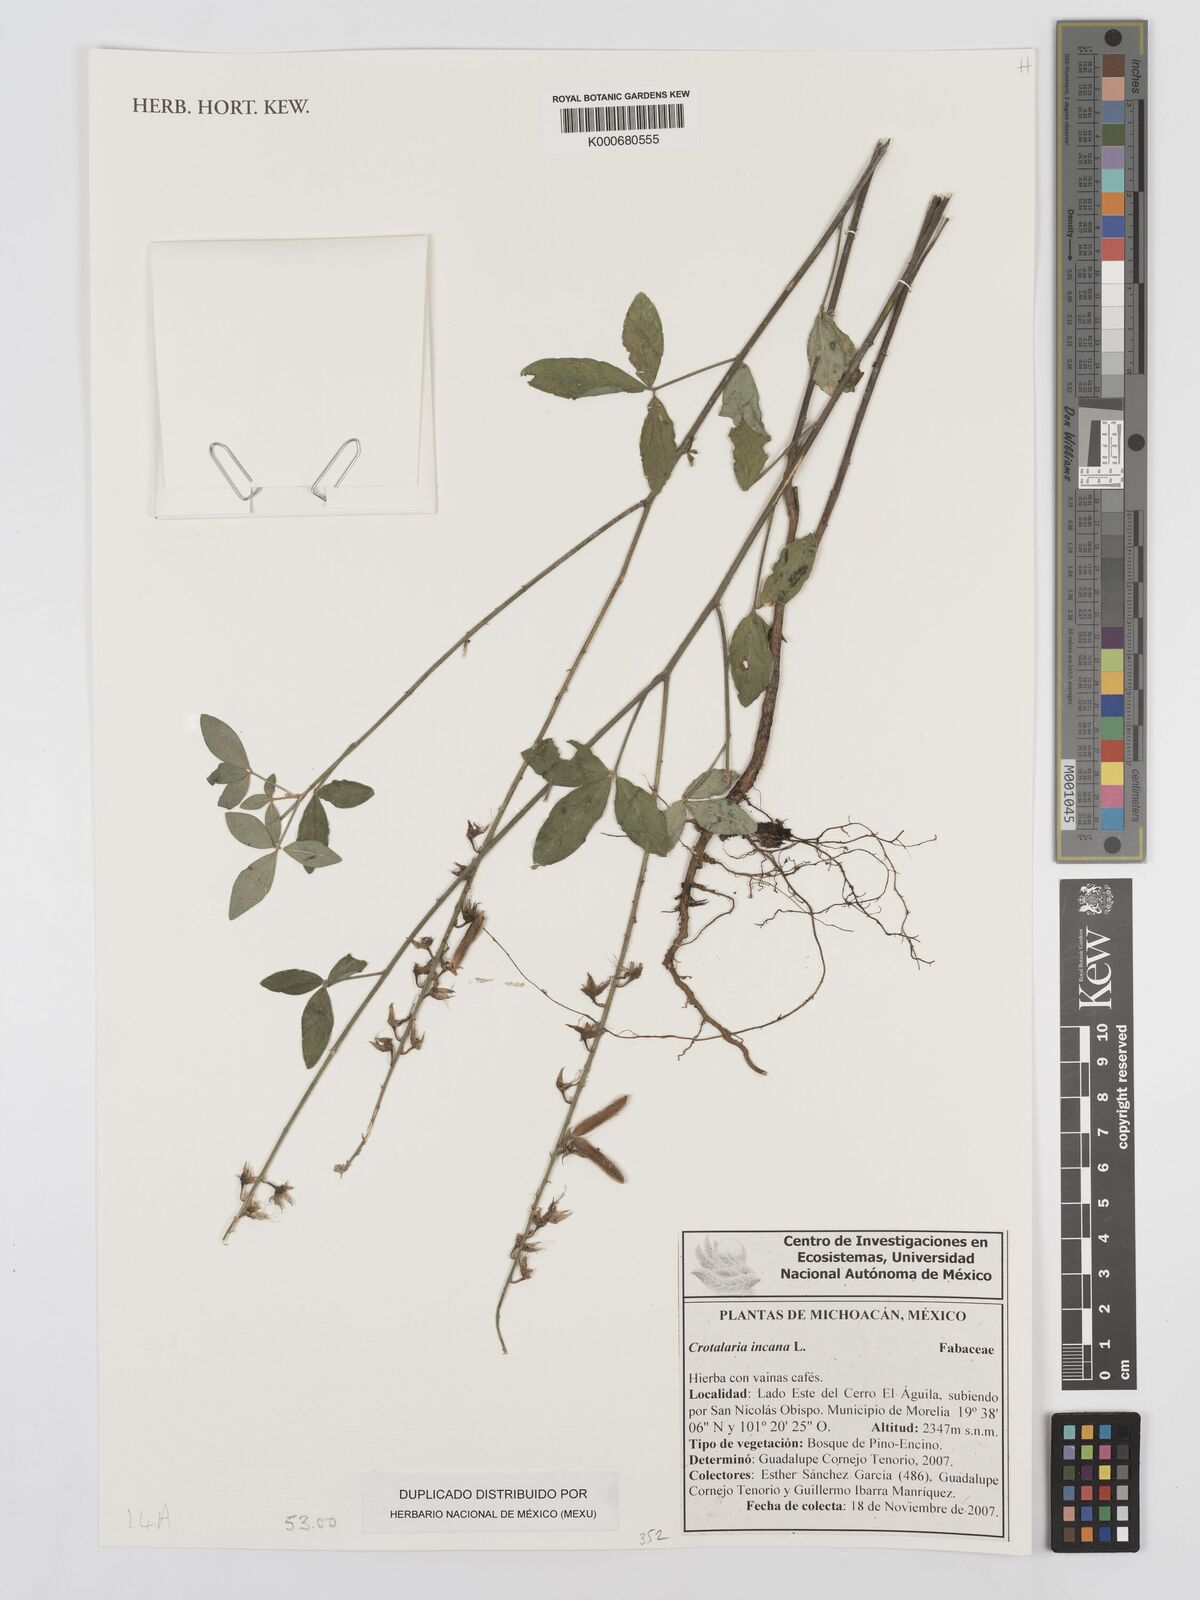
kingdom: Plantae
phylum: Tracheophyta
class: Magnoliopsida
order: Fabales
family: Fabaceae
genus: Crotalaria
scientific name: Crotalaria incana
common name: Shakeshake
